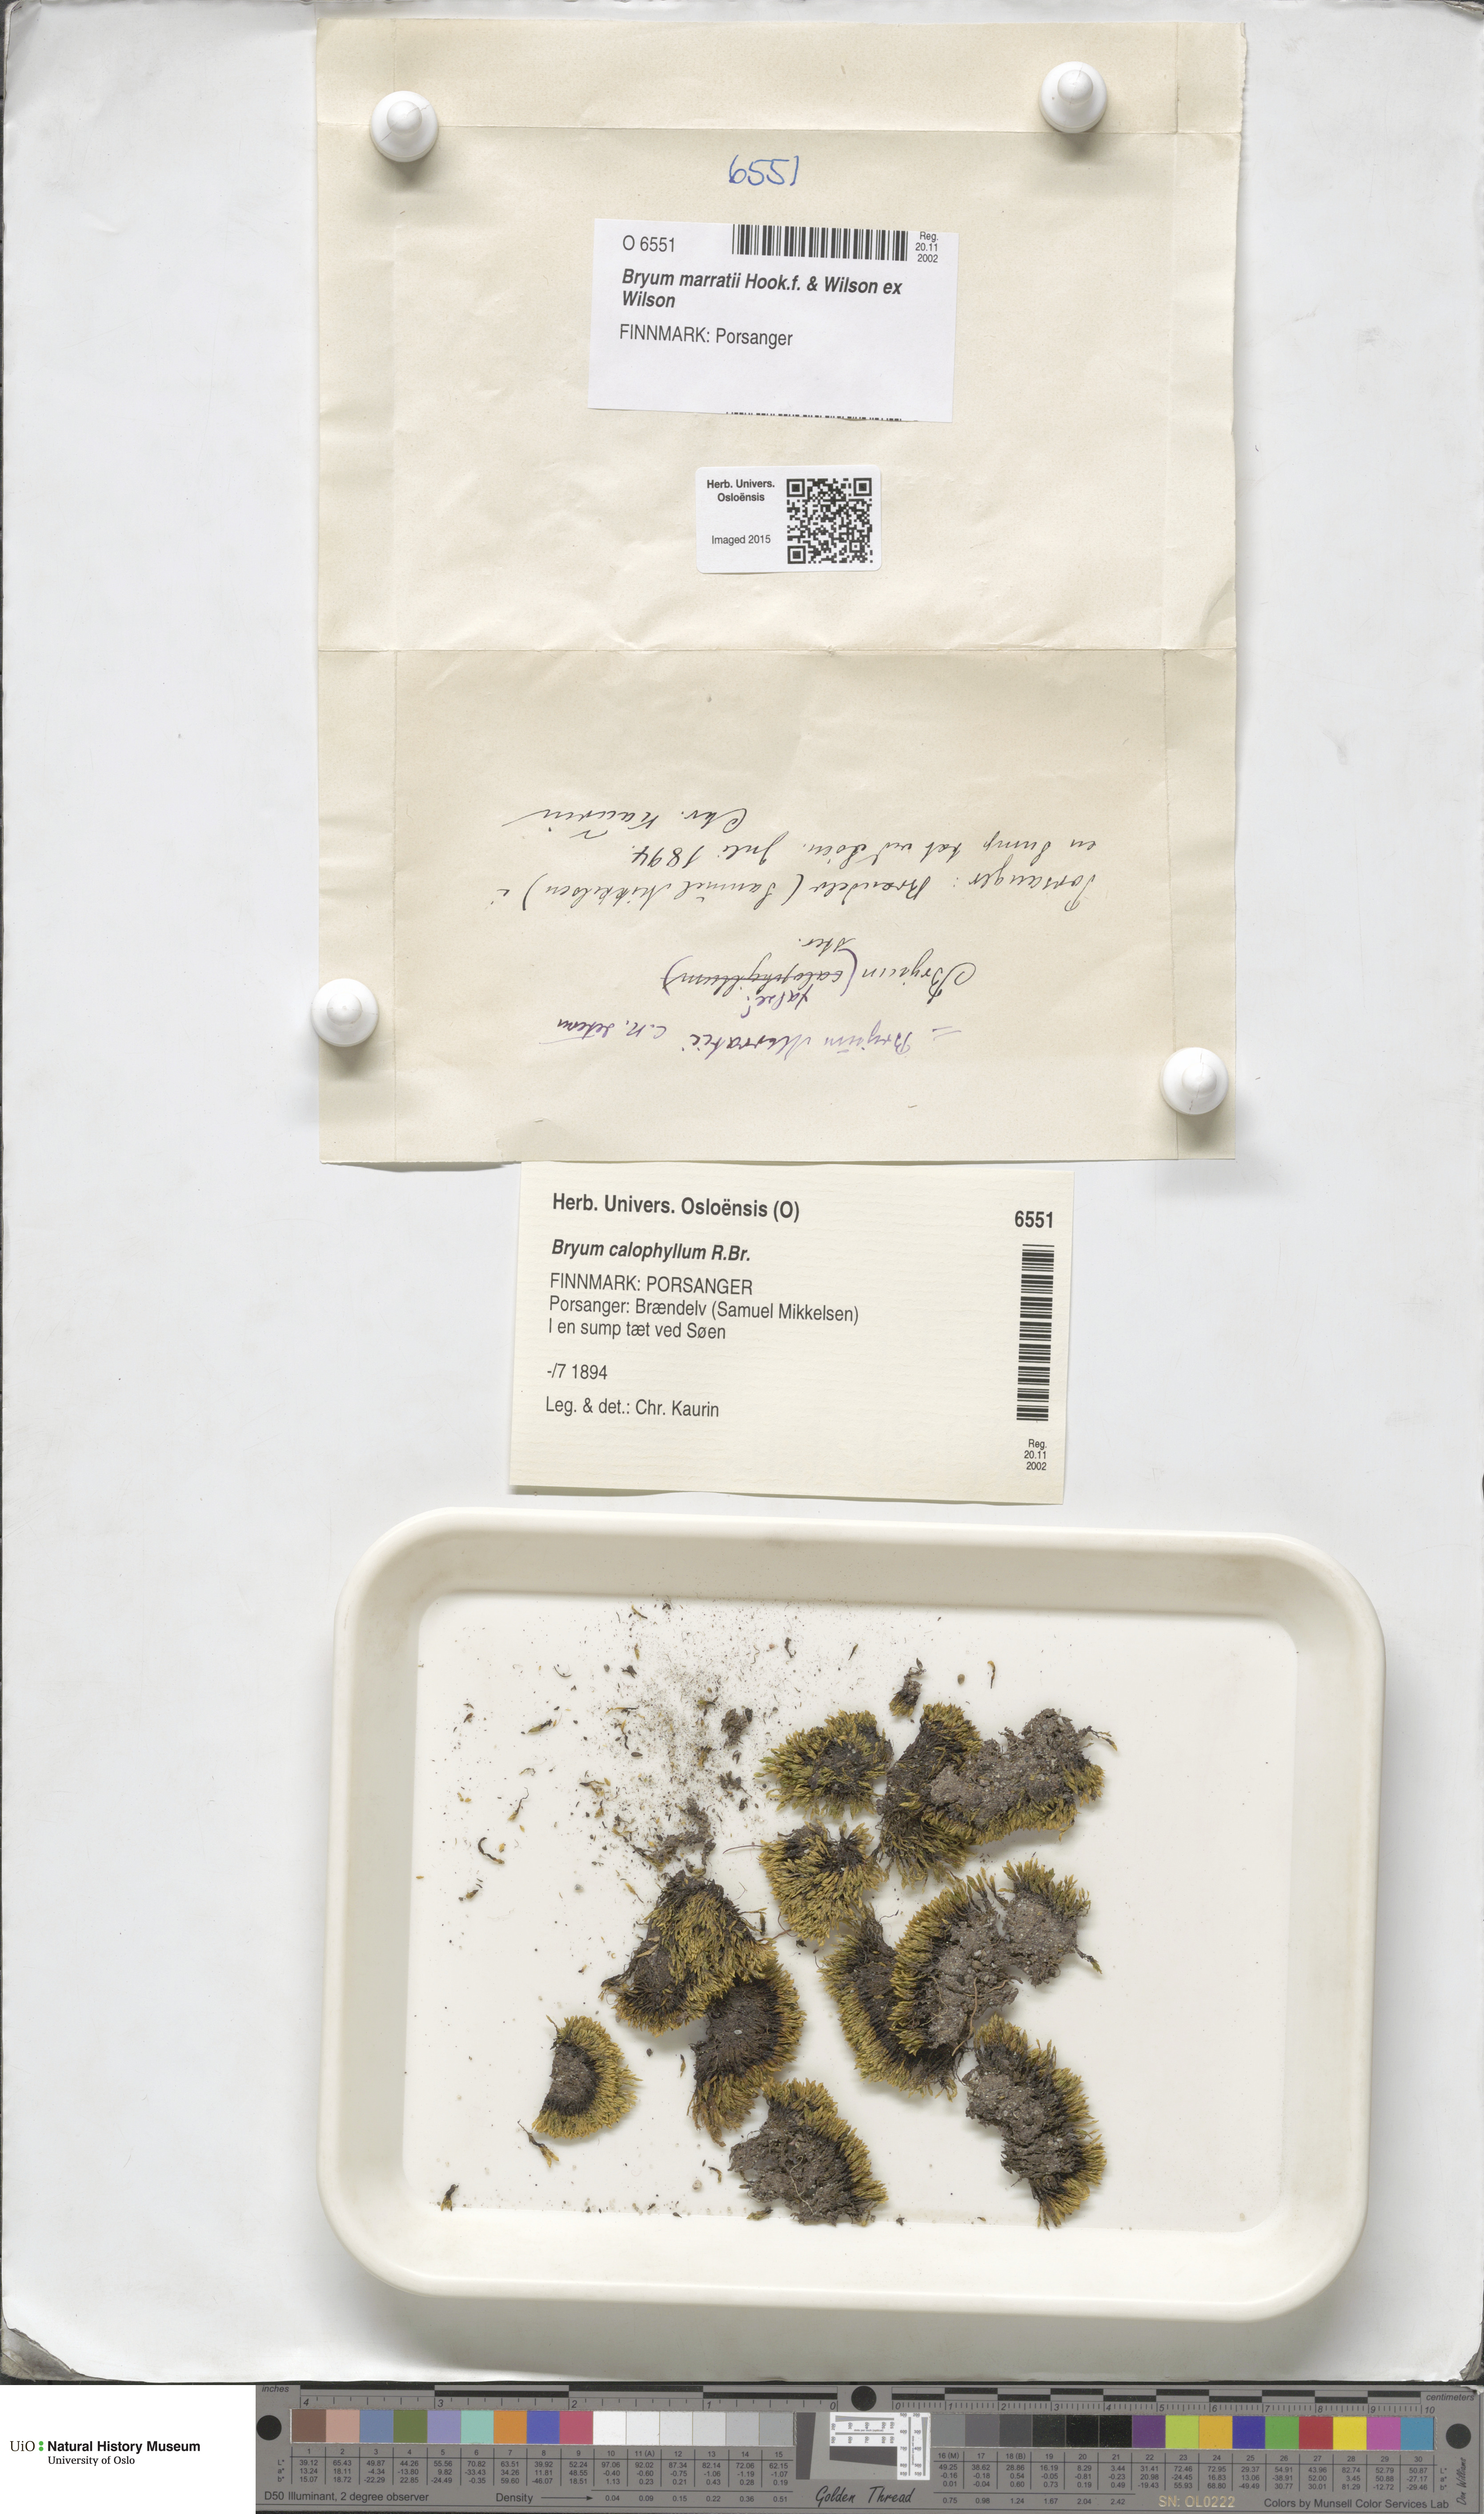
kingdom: Plantae
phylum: Bryophyta
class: Bryopsida
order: Bryales
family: Bryaceae
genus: Ptychostomum
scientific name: Ptychostomum marratii
